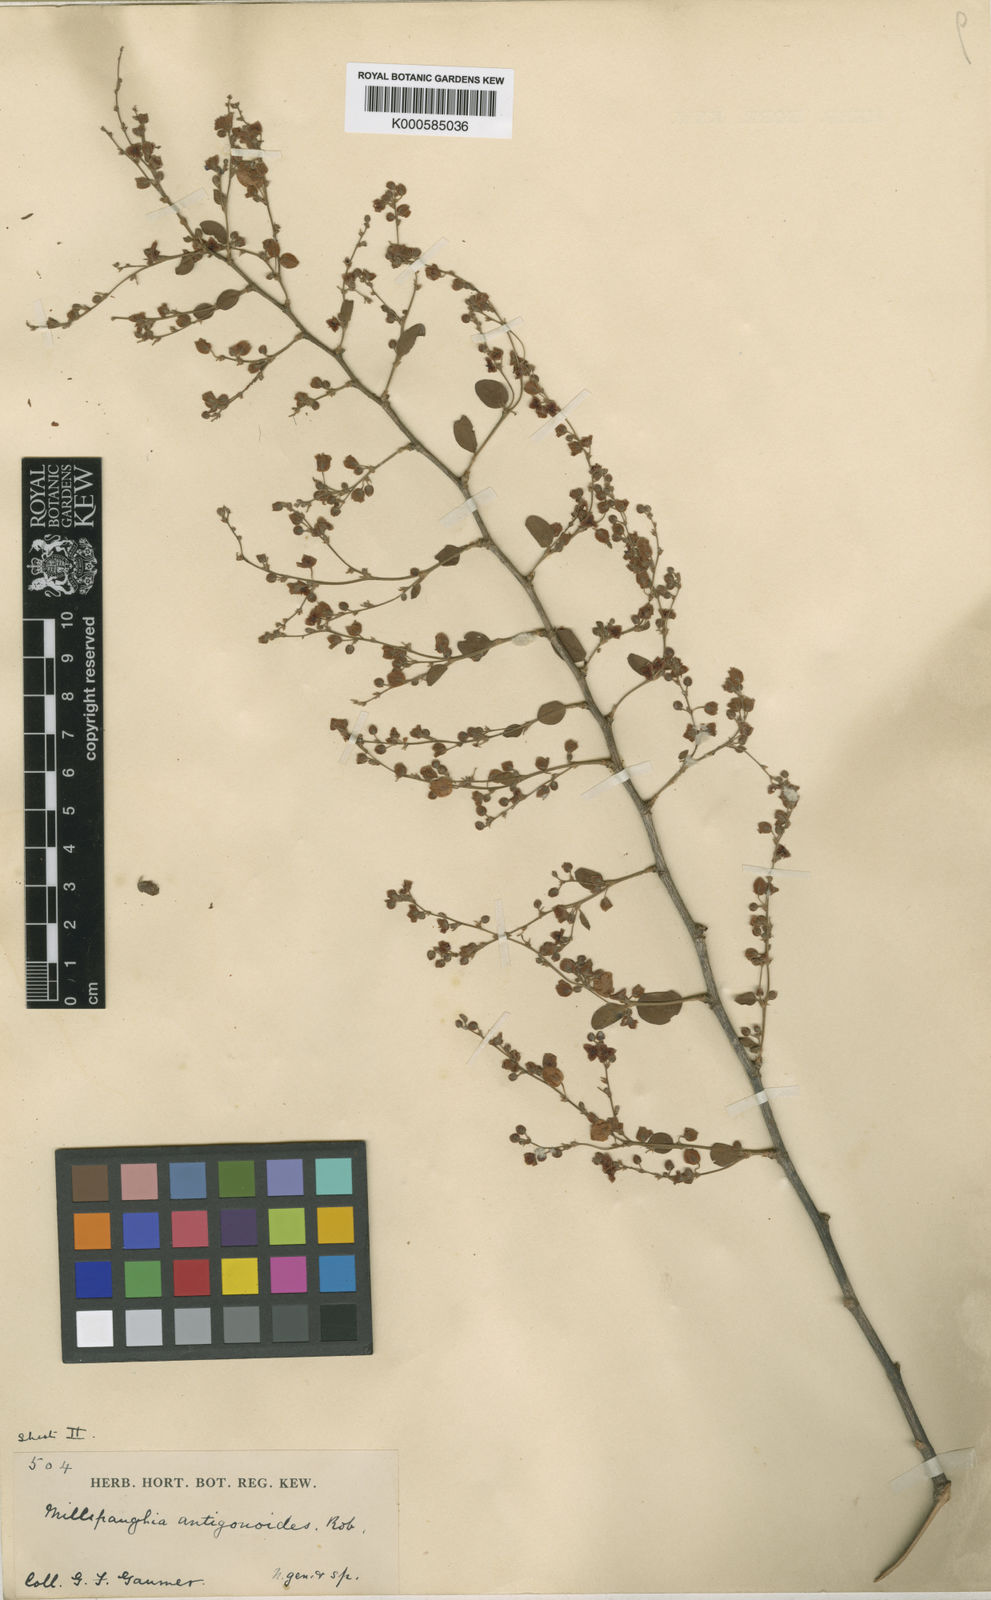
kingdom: Plantae
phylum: Tracheophyta
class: Magnoliopsida
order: Caryophyllales
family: Polygonaceae
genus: Gymnopodium
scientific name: Gymnopodium floribundum
